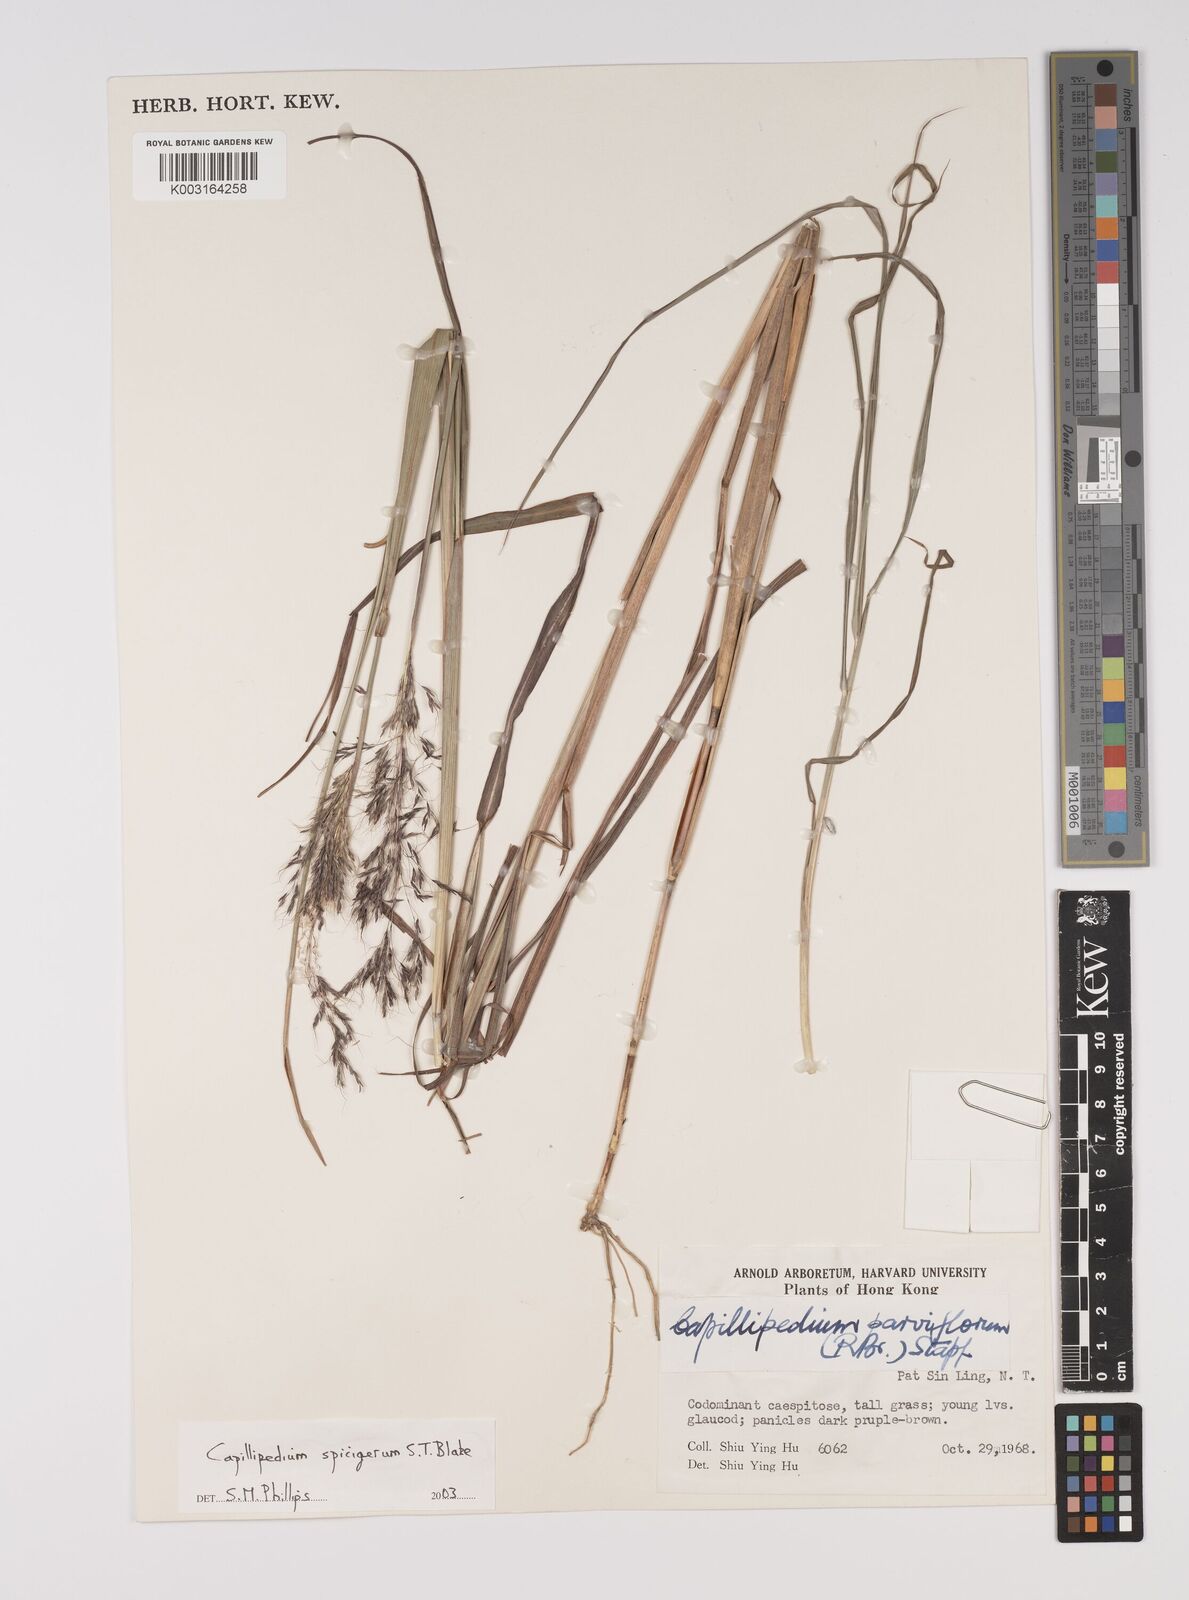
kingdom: Plantae
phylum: Tracheophyta
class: Liliopsida
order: Poales
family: Poaceae
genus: Capillipedium
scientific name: Capillipedium spicigerum
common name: Scented-top grass
